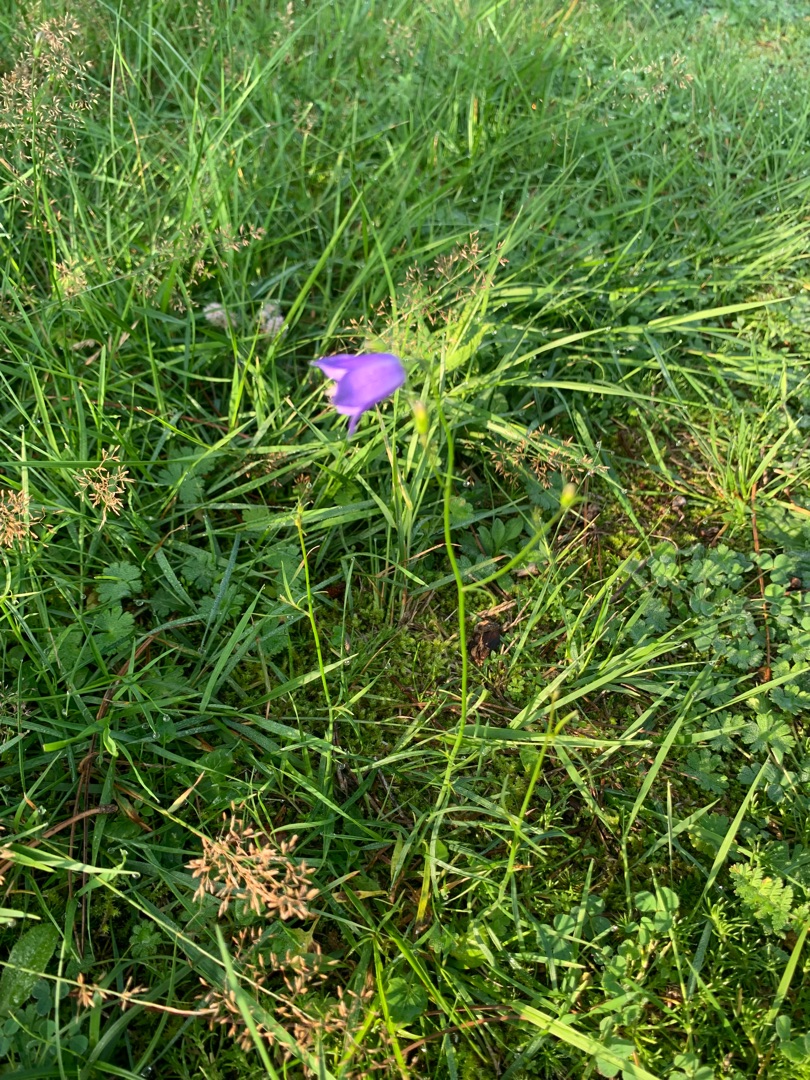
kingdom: Plantae
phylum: Tracheophyta
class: Magnoliopsida
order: Asterales
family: Campanulaceae
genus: Campanula
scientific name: Campanula rotundifolia
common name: Liden klokke
